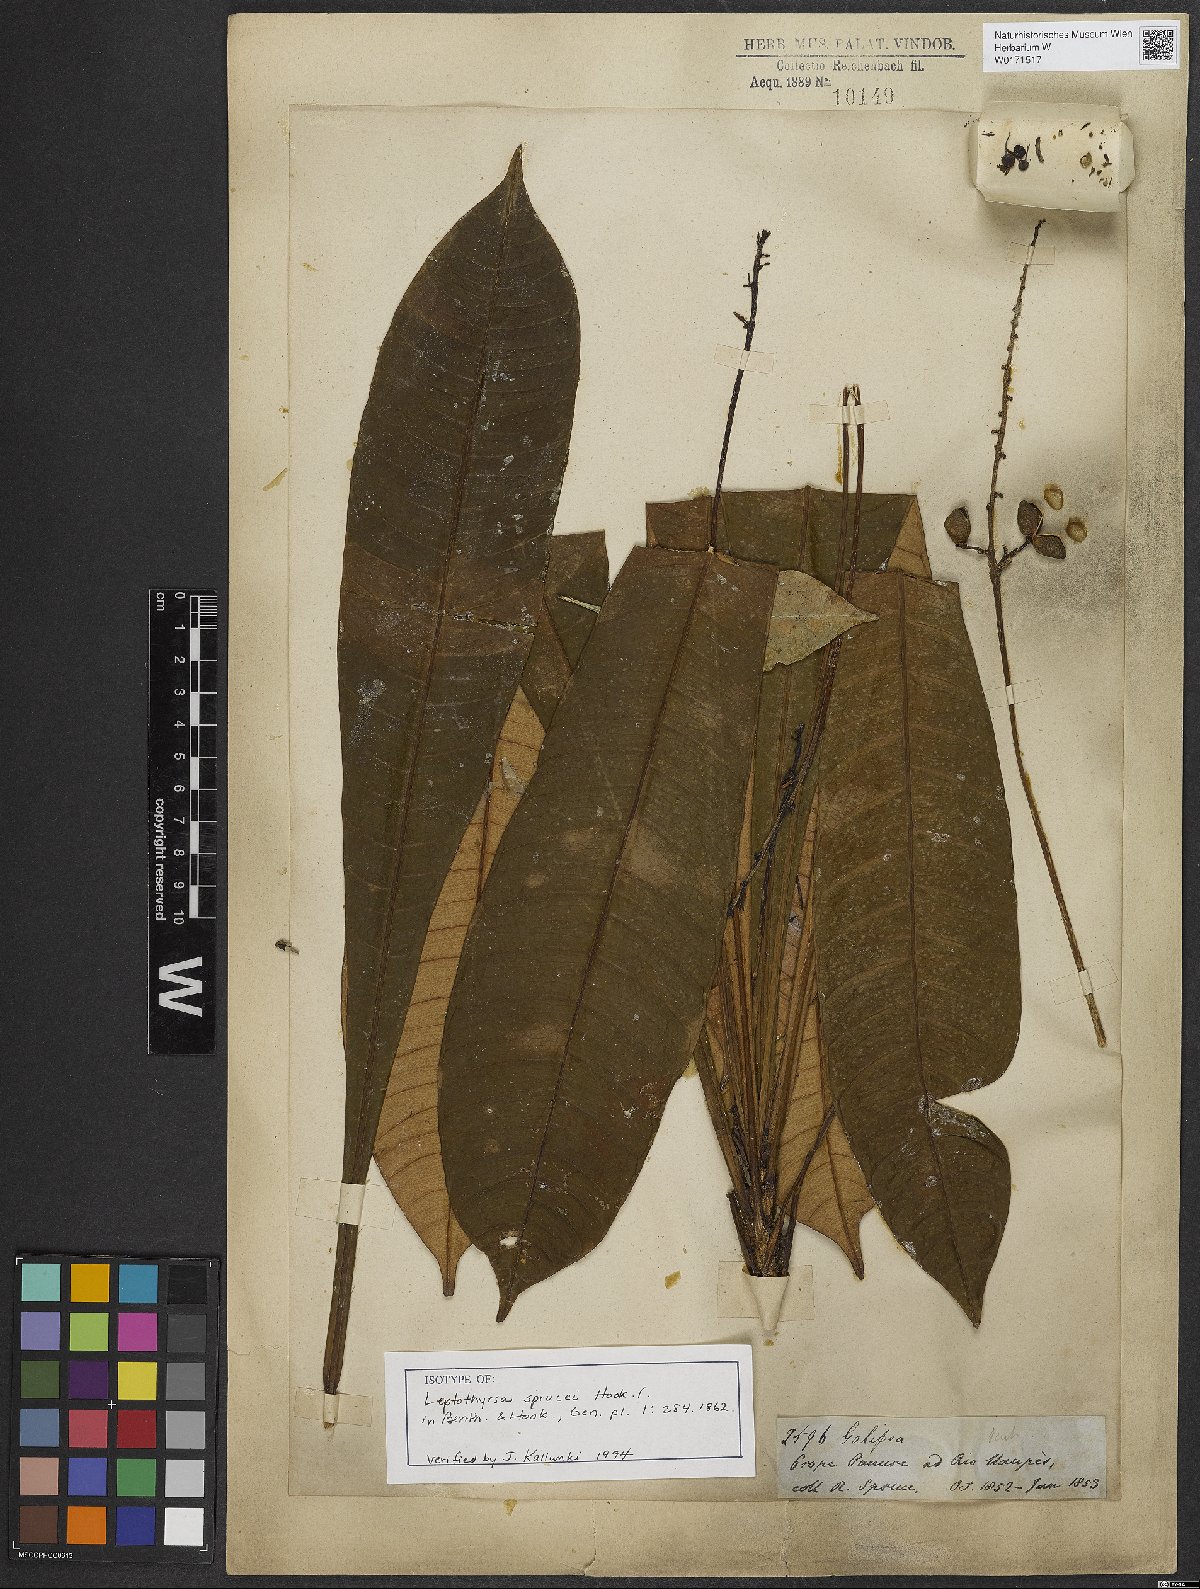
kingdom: Plantae
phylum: Tracheophyta
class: Magnoliopsida
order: Sapindales
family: Rutaceae
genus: Leptothyrsa
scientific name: Leptothyrsa sprucei
